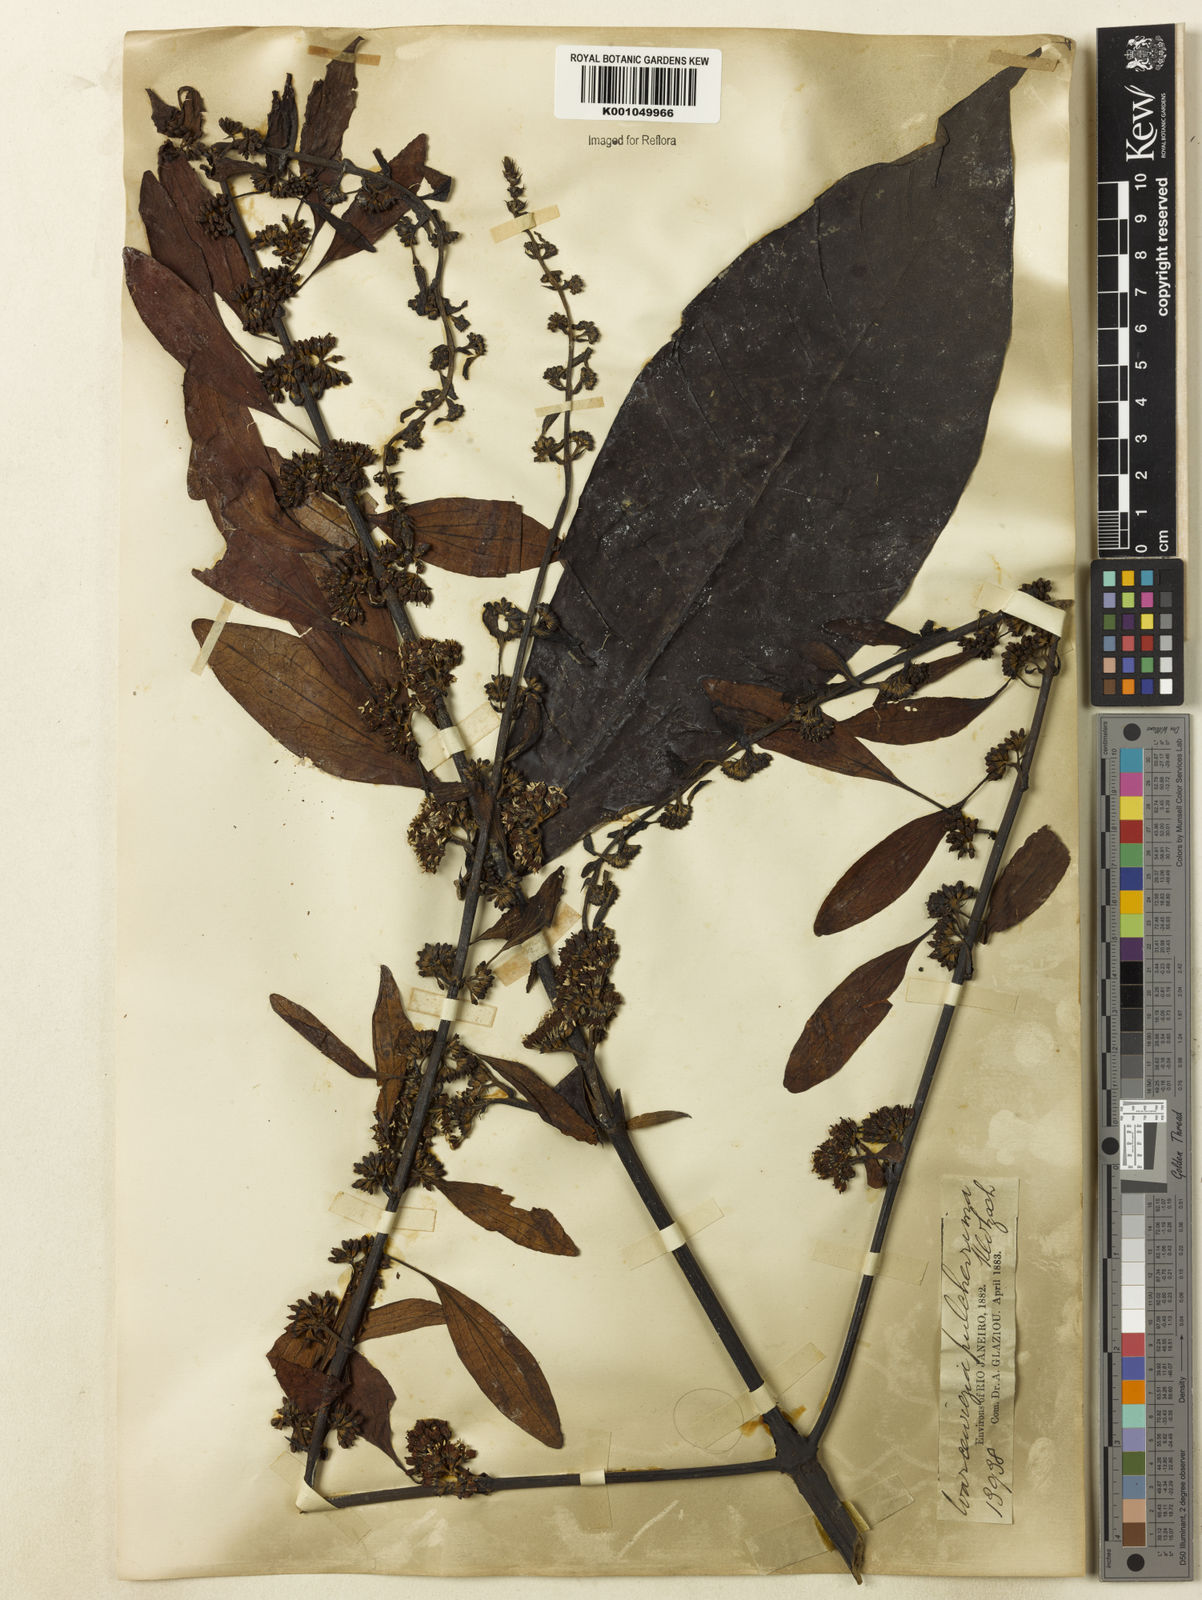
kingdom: Plantae
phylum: Tracheophyta
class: Magnoliopsida
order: Gentianales
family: Rubiaceae
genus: Warszewiczia
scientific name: Warszewiczia coccinea
